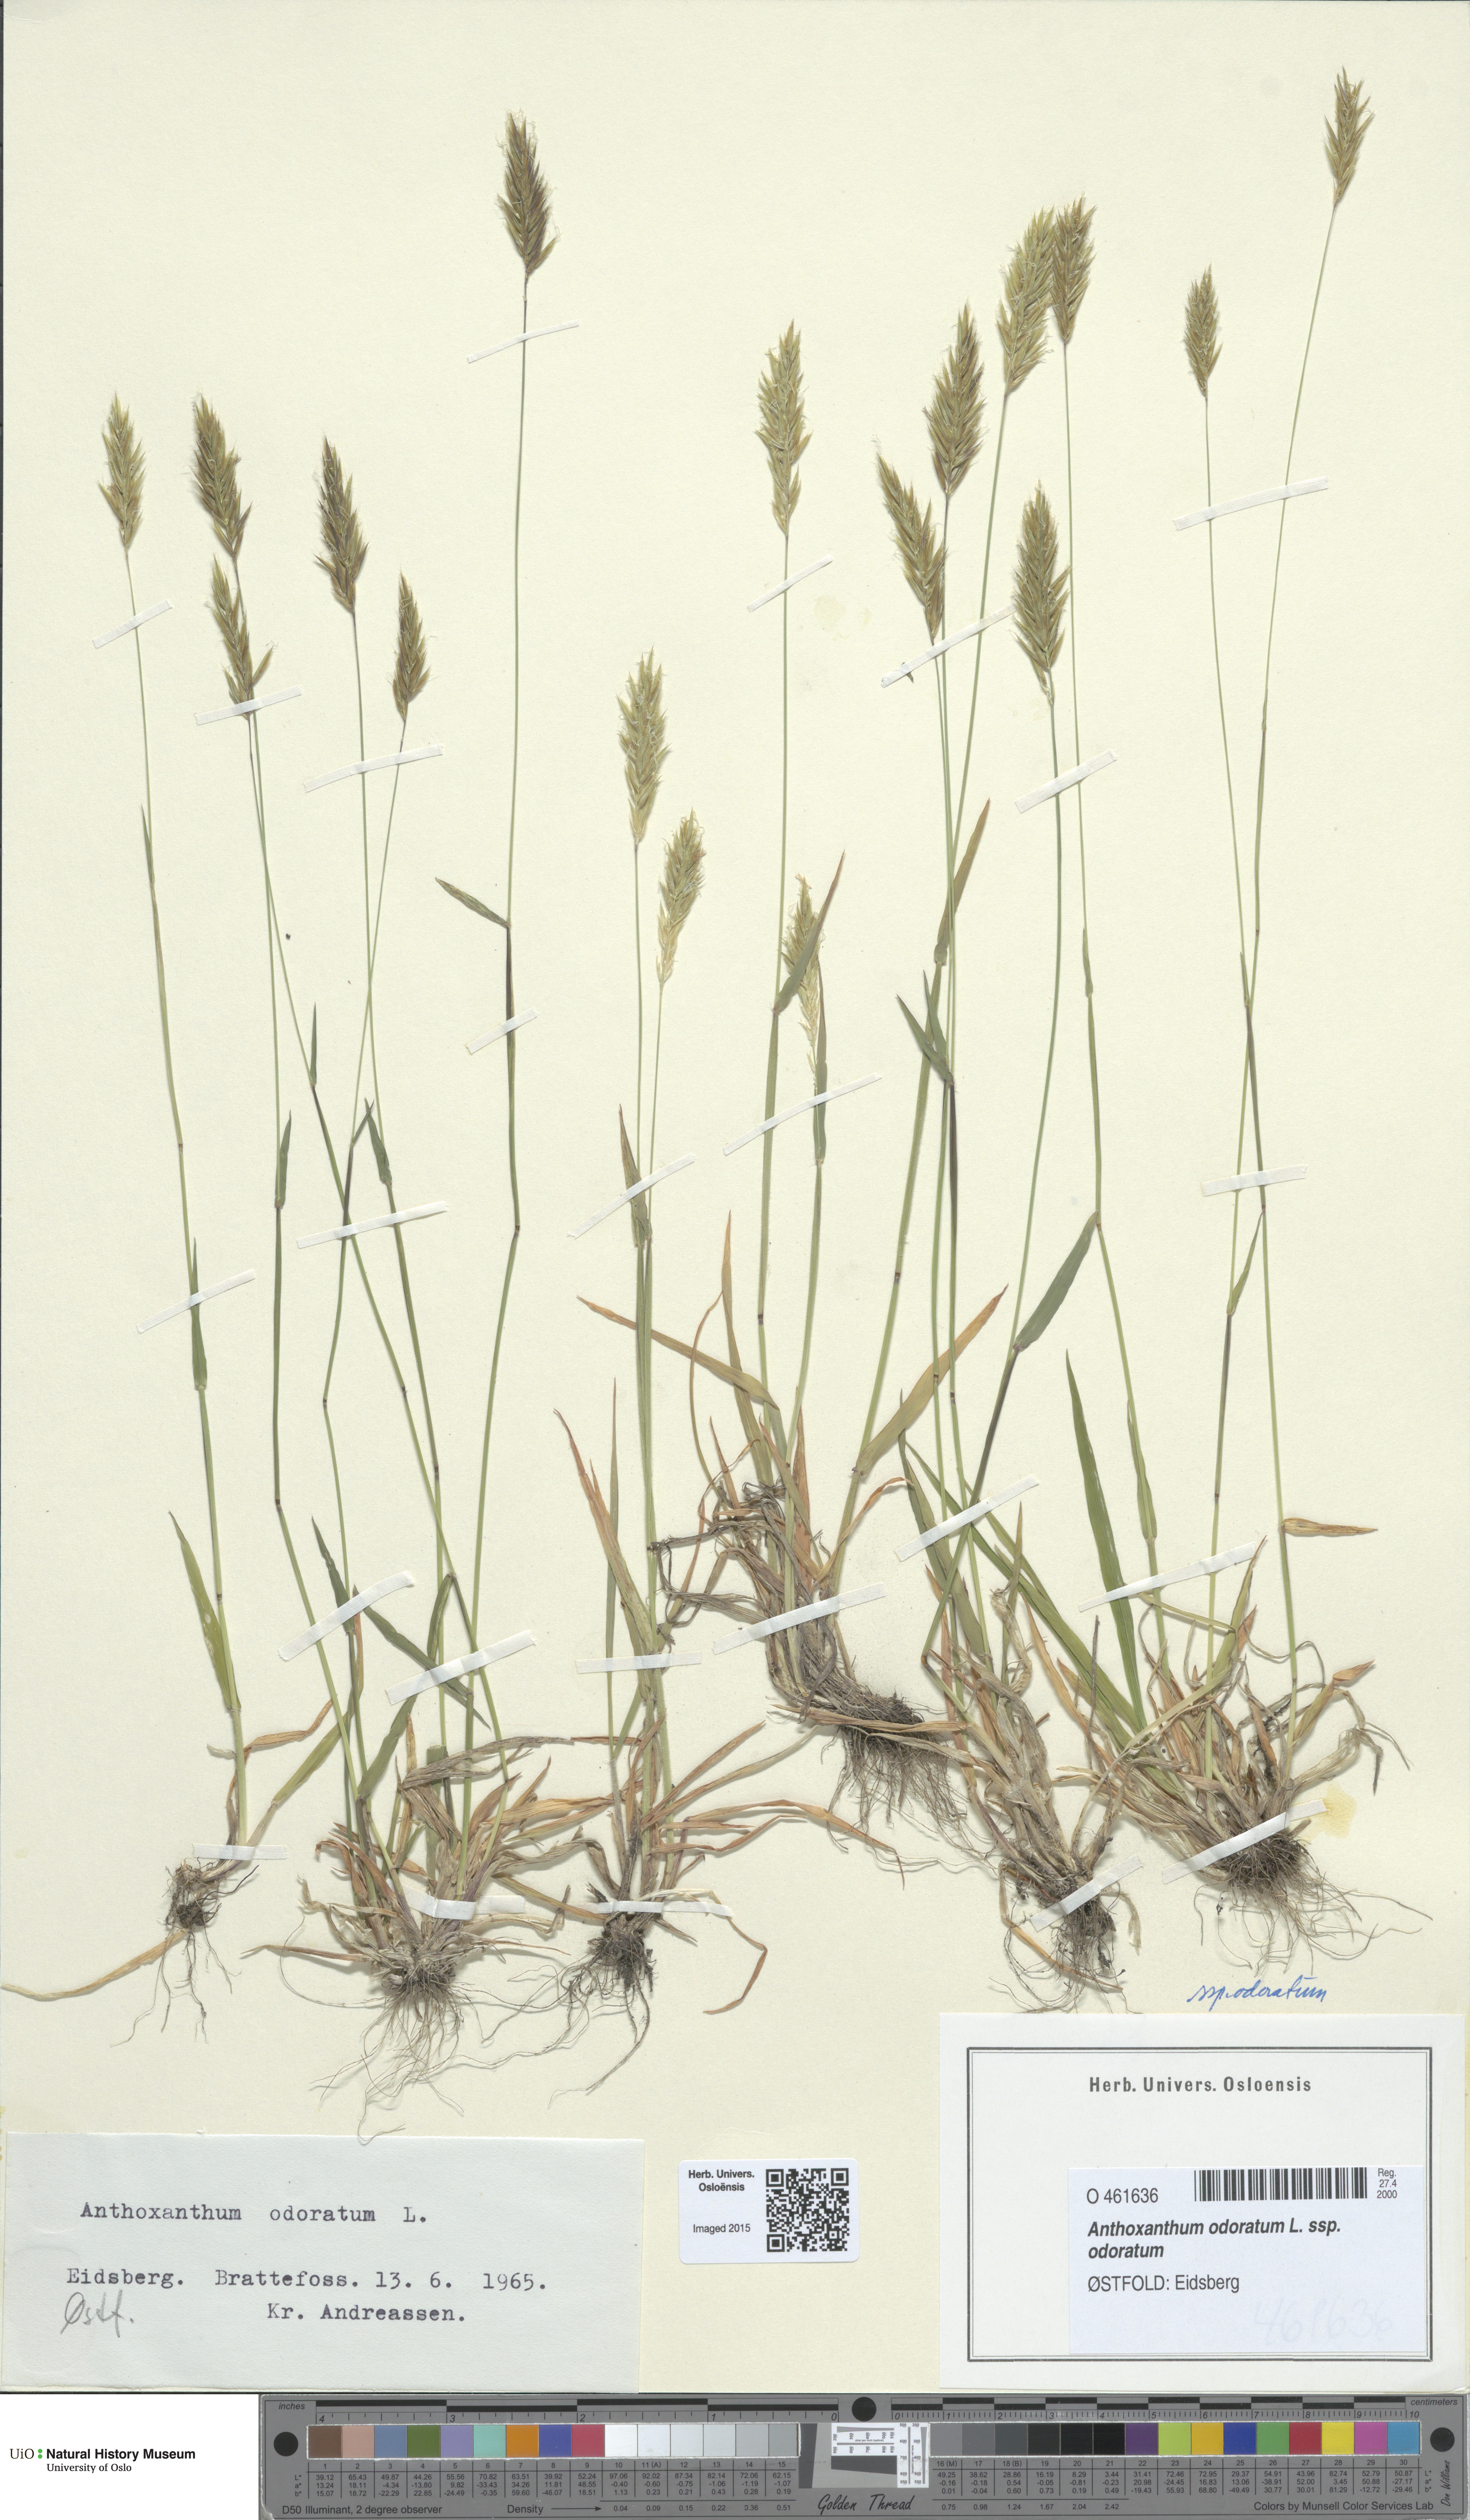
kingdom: Plantae
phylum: Tracheophyta
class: Liliopsida
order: Poales
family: Poaceae
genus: Anthoxanthum
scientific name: Anthoxanthum odoratum
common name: Sweet vernalgrass
